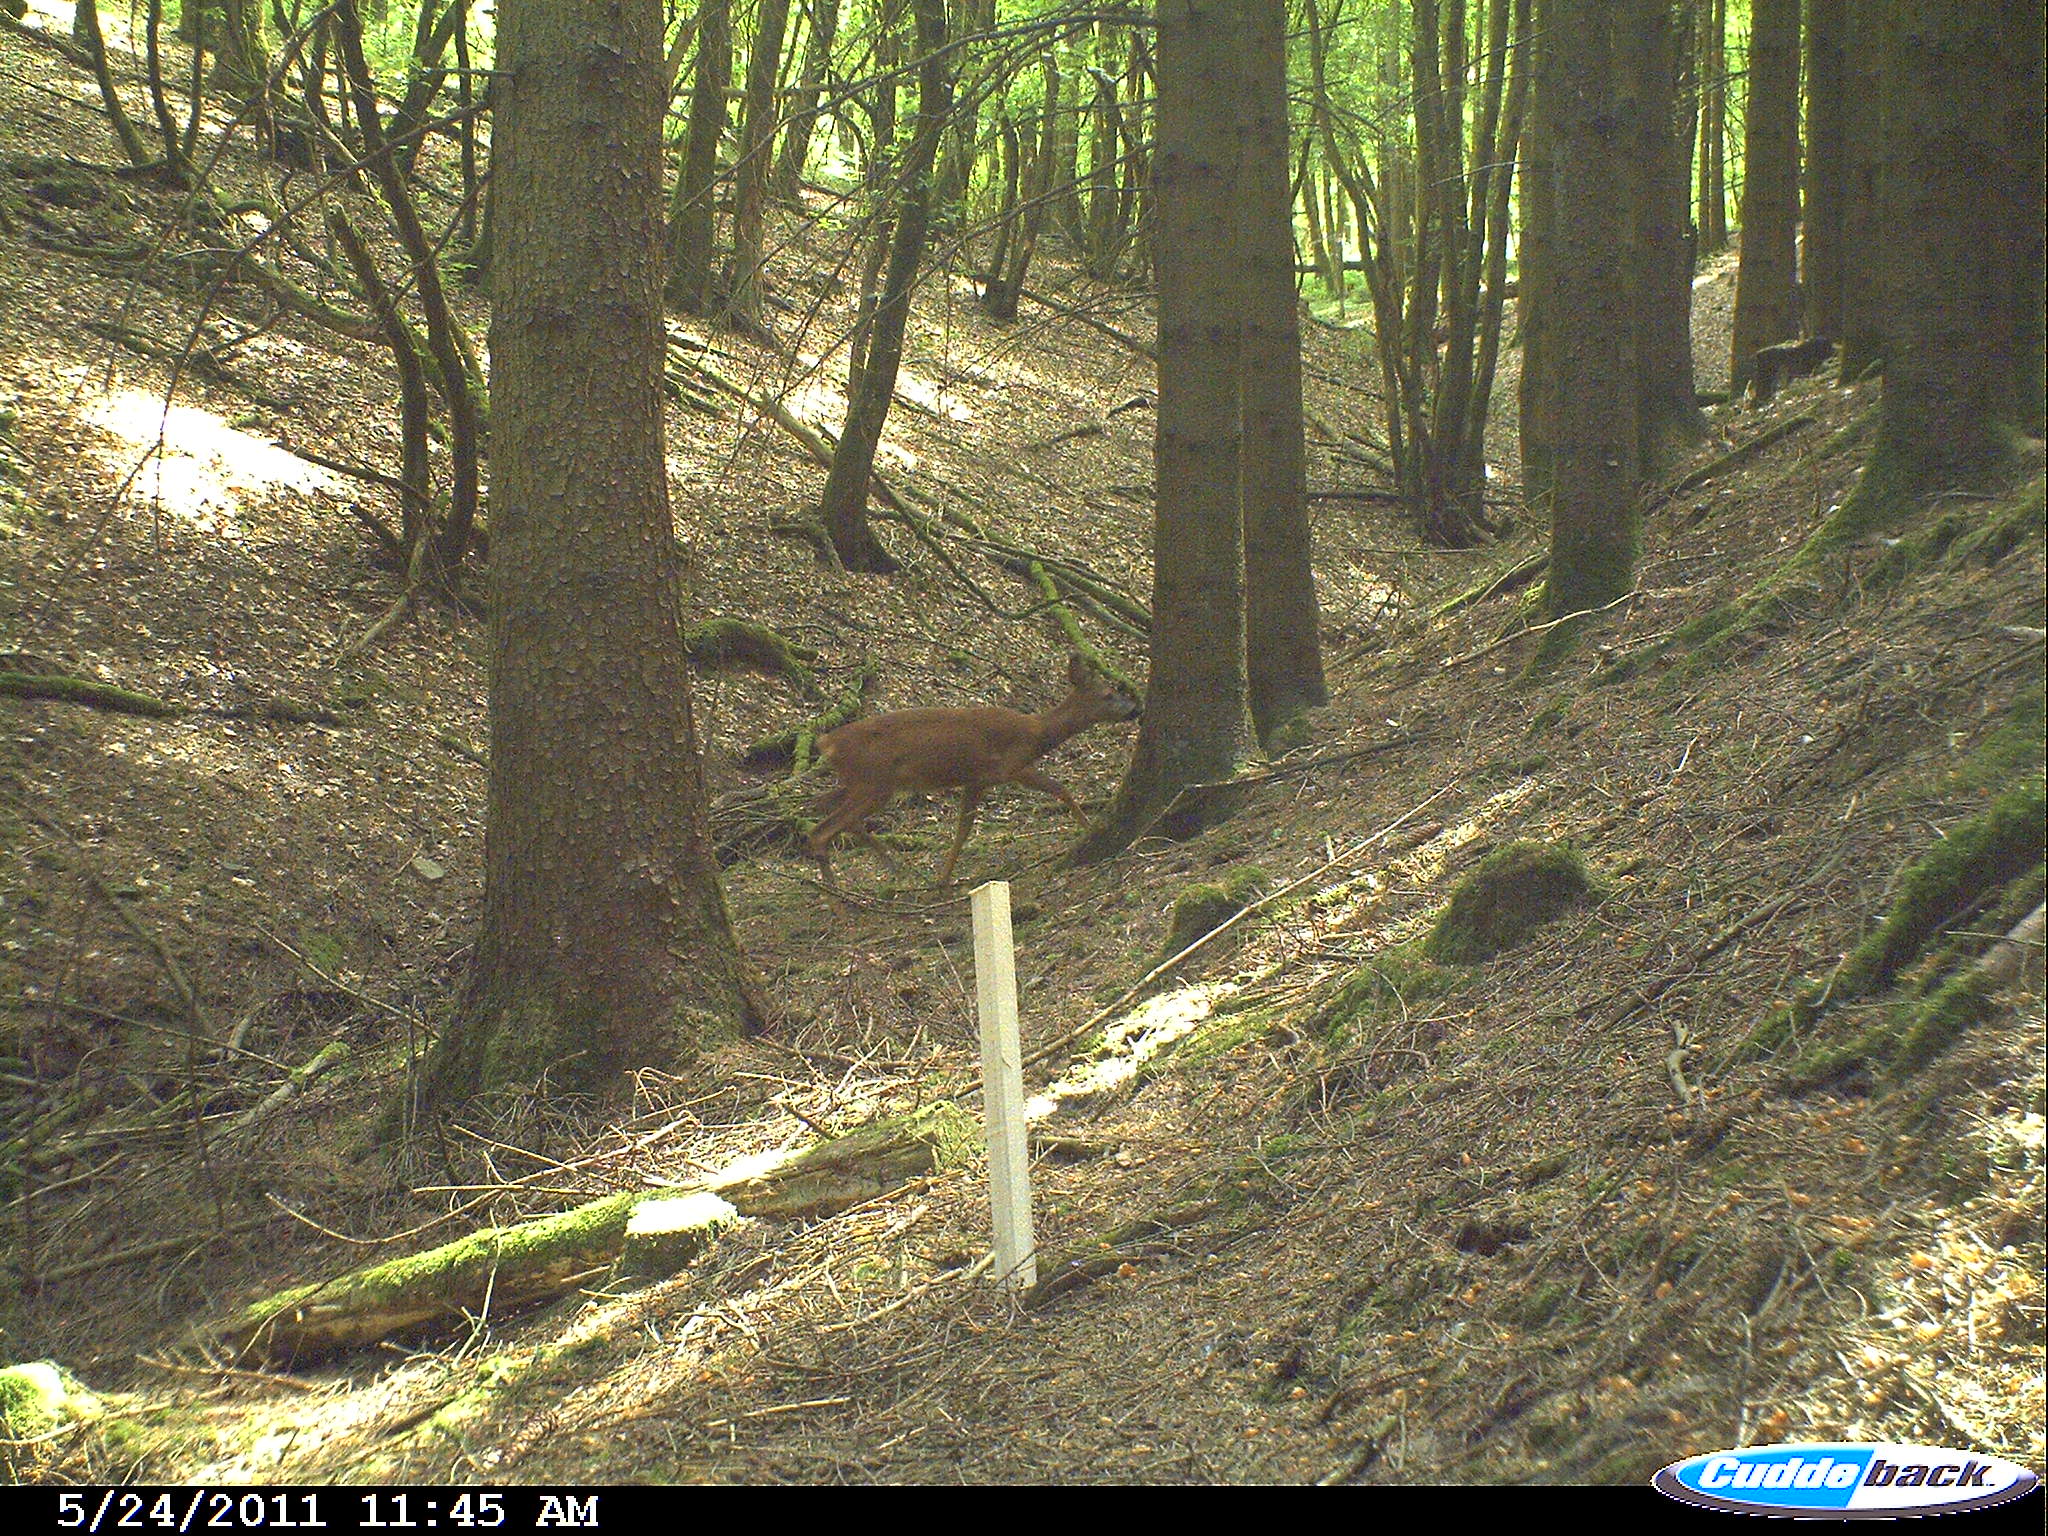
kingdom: Animalia
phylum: Chordata
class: Mammalia
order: Artiodactyla
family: Cervidae
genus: Capreolus
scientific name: Capreolus capreolus
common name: Western roe deer
